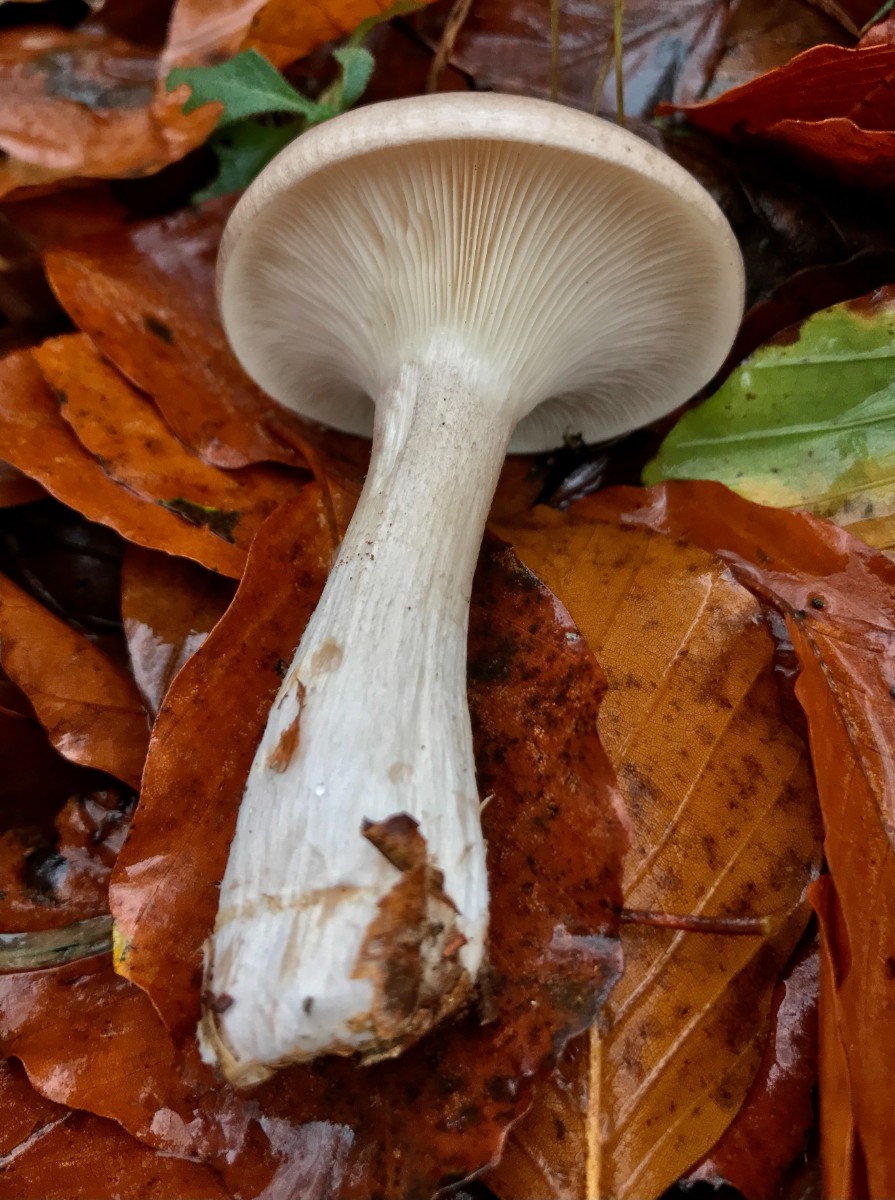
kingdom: Fungi
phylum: Basidiomycota
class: Agaricomycetes
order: Agaricales
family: Tricholomataceae
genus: Clitocybe
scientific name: Clitocybe nebularis
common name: tåge-tragthat
